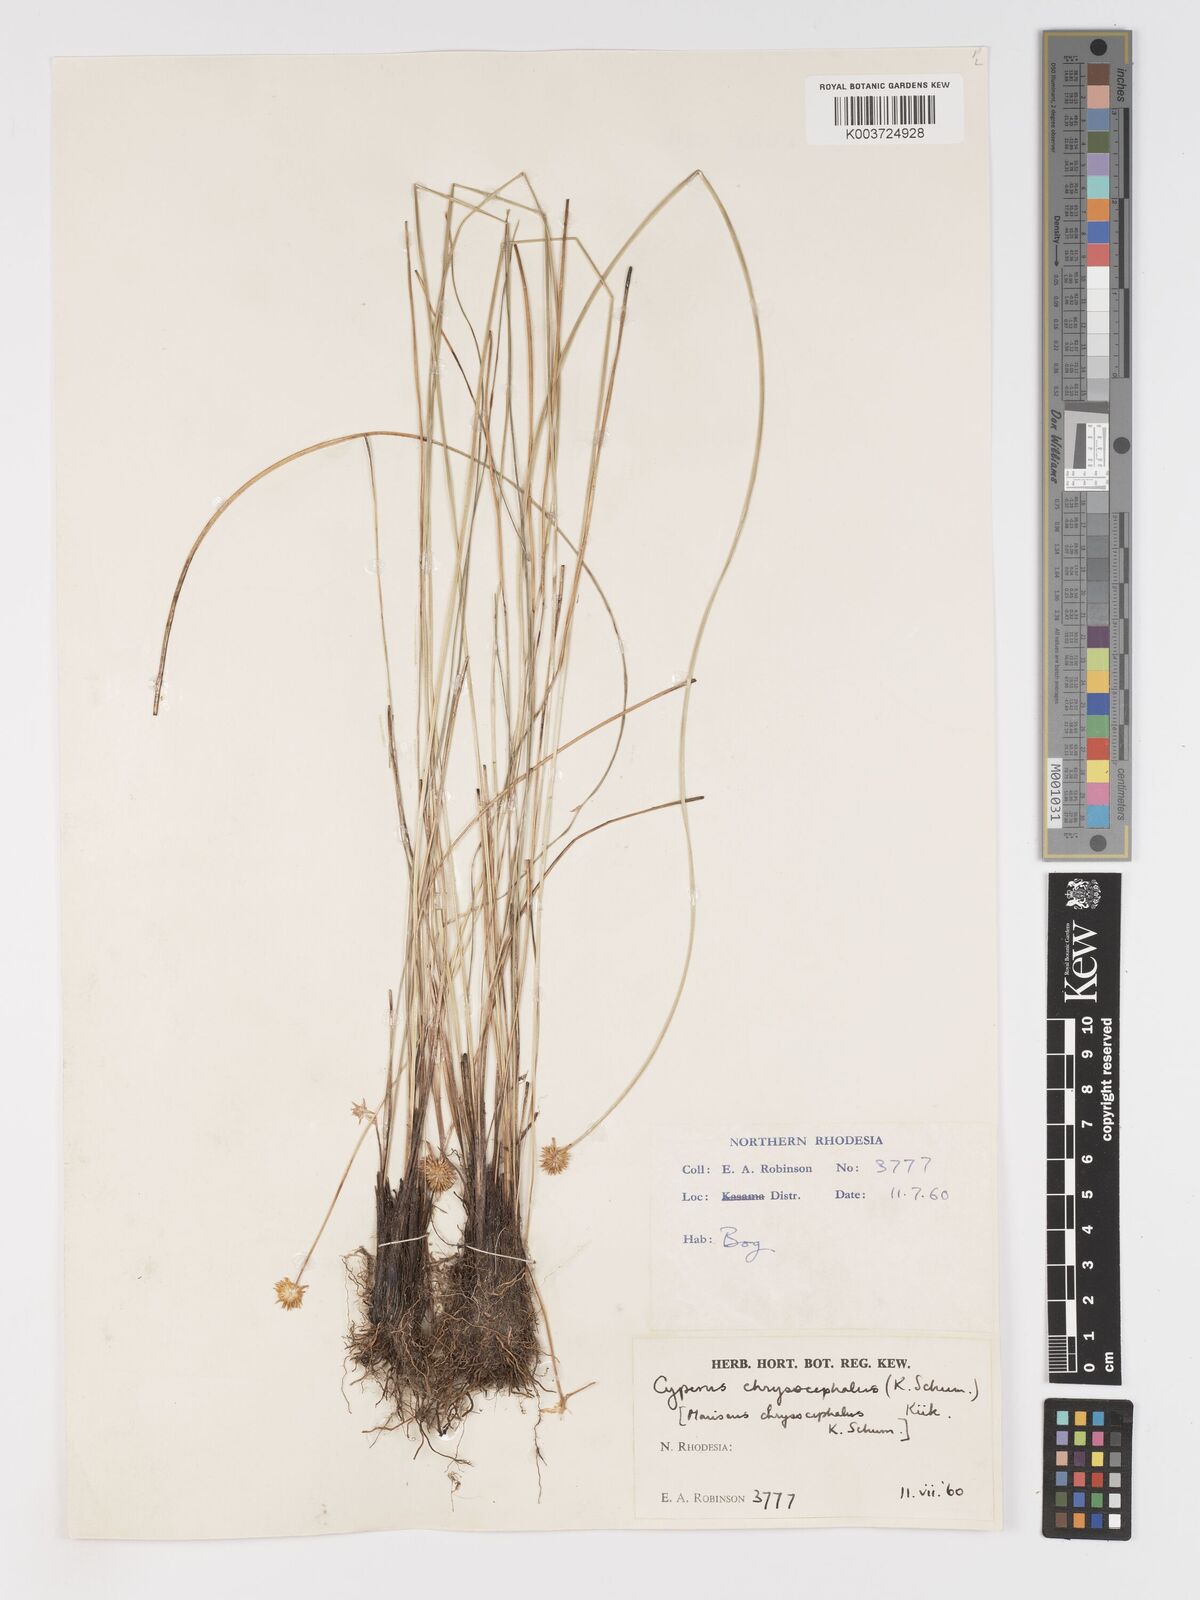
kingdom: Plantae
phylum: Tracheophyta
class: Liliopsida
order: Poales
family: Cyperaceae
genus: Cyperus
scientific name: Cyperus chrysocephalus
